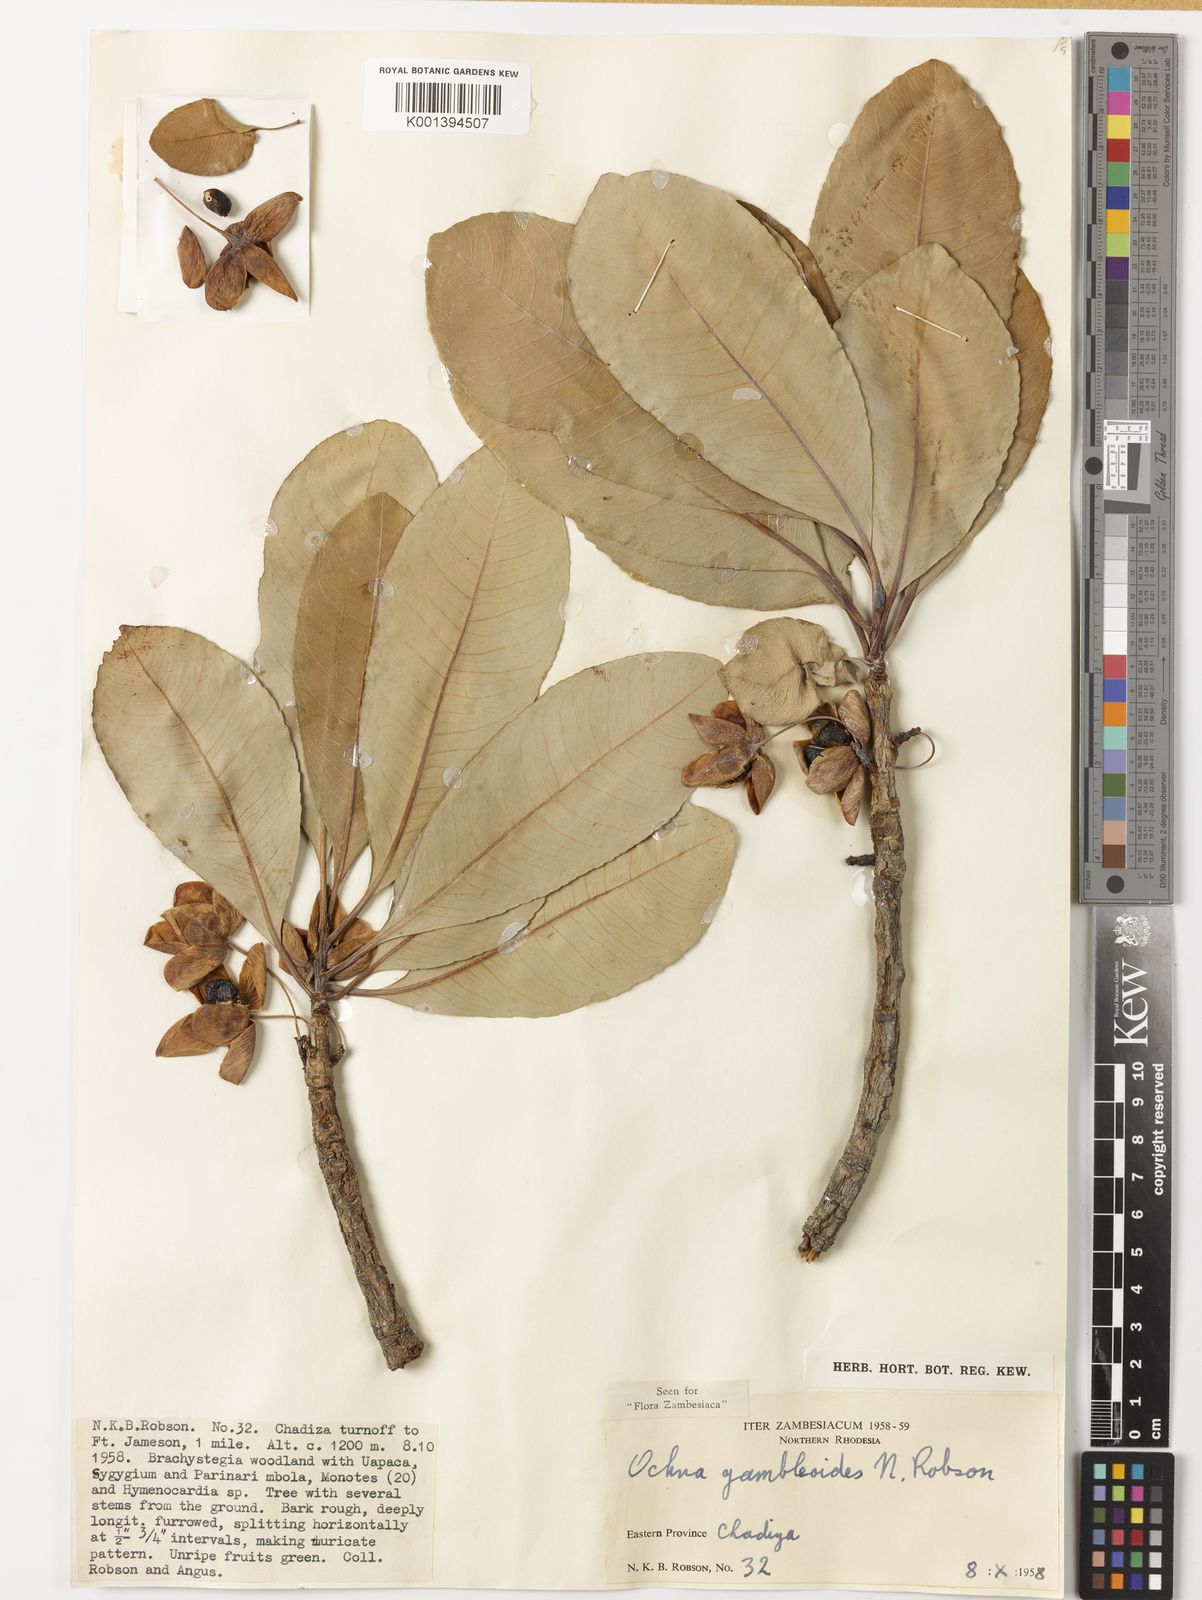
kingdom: Plantae
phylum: Tracheophyta
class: Magnoliopsida
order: Malpighiales
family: Ochnaceae
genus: Ochna
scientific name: Ochna gambleoides
